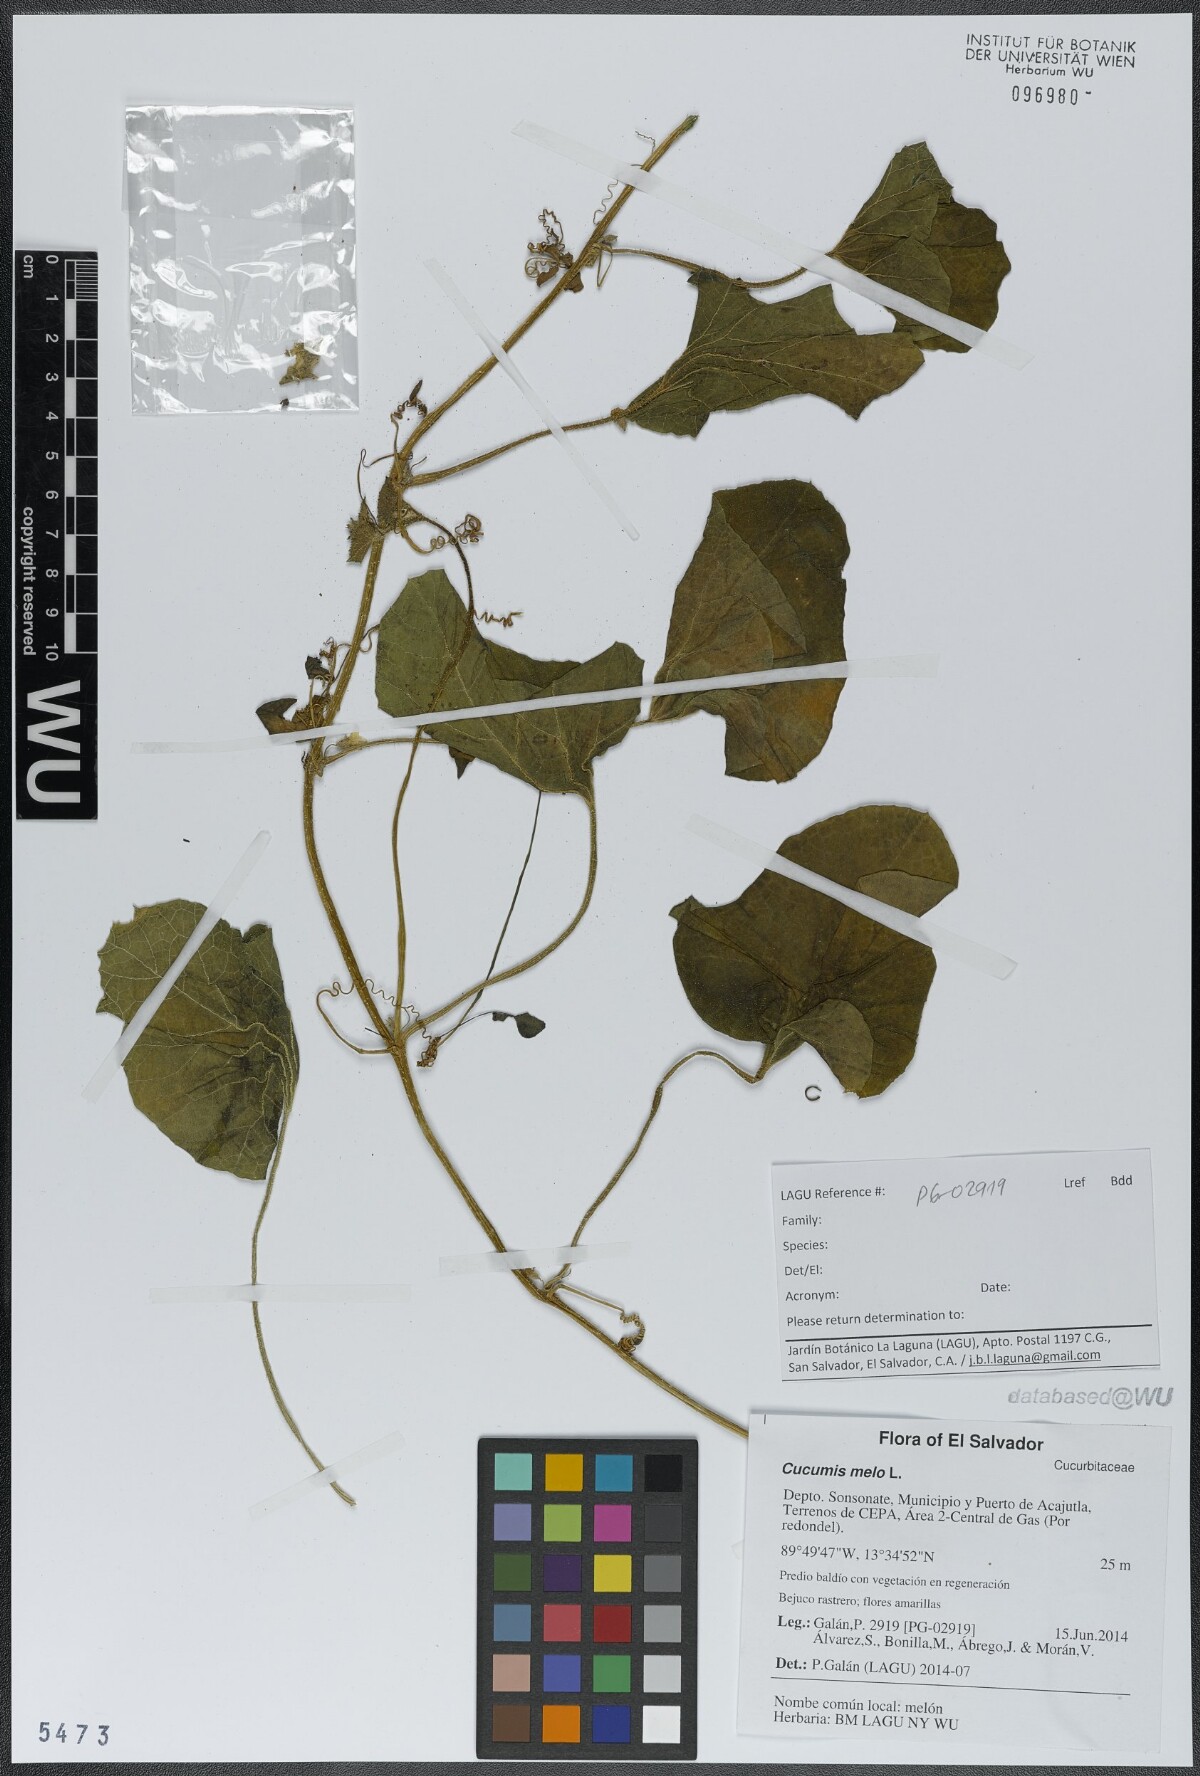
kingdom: Plantae
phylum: Tracheophyta
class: Magnoliopsida
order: Cucurbitales
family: Cucurbitaceae
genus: Cucumis
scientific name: Cucumis melo
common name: Melon
